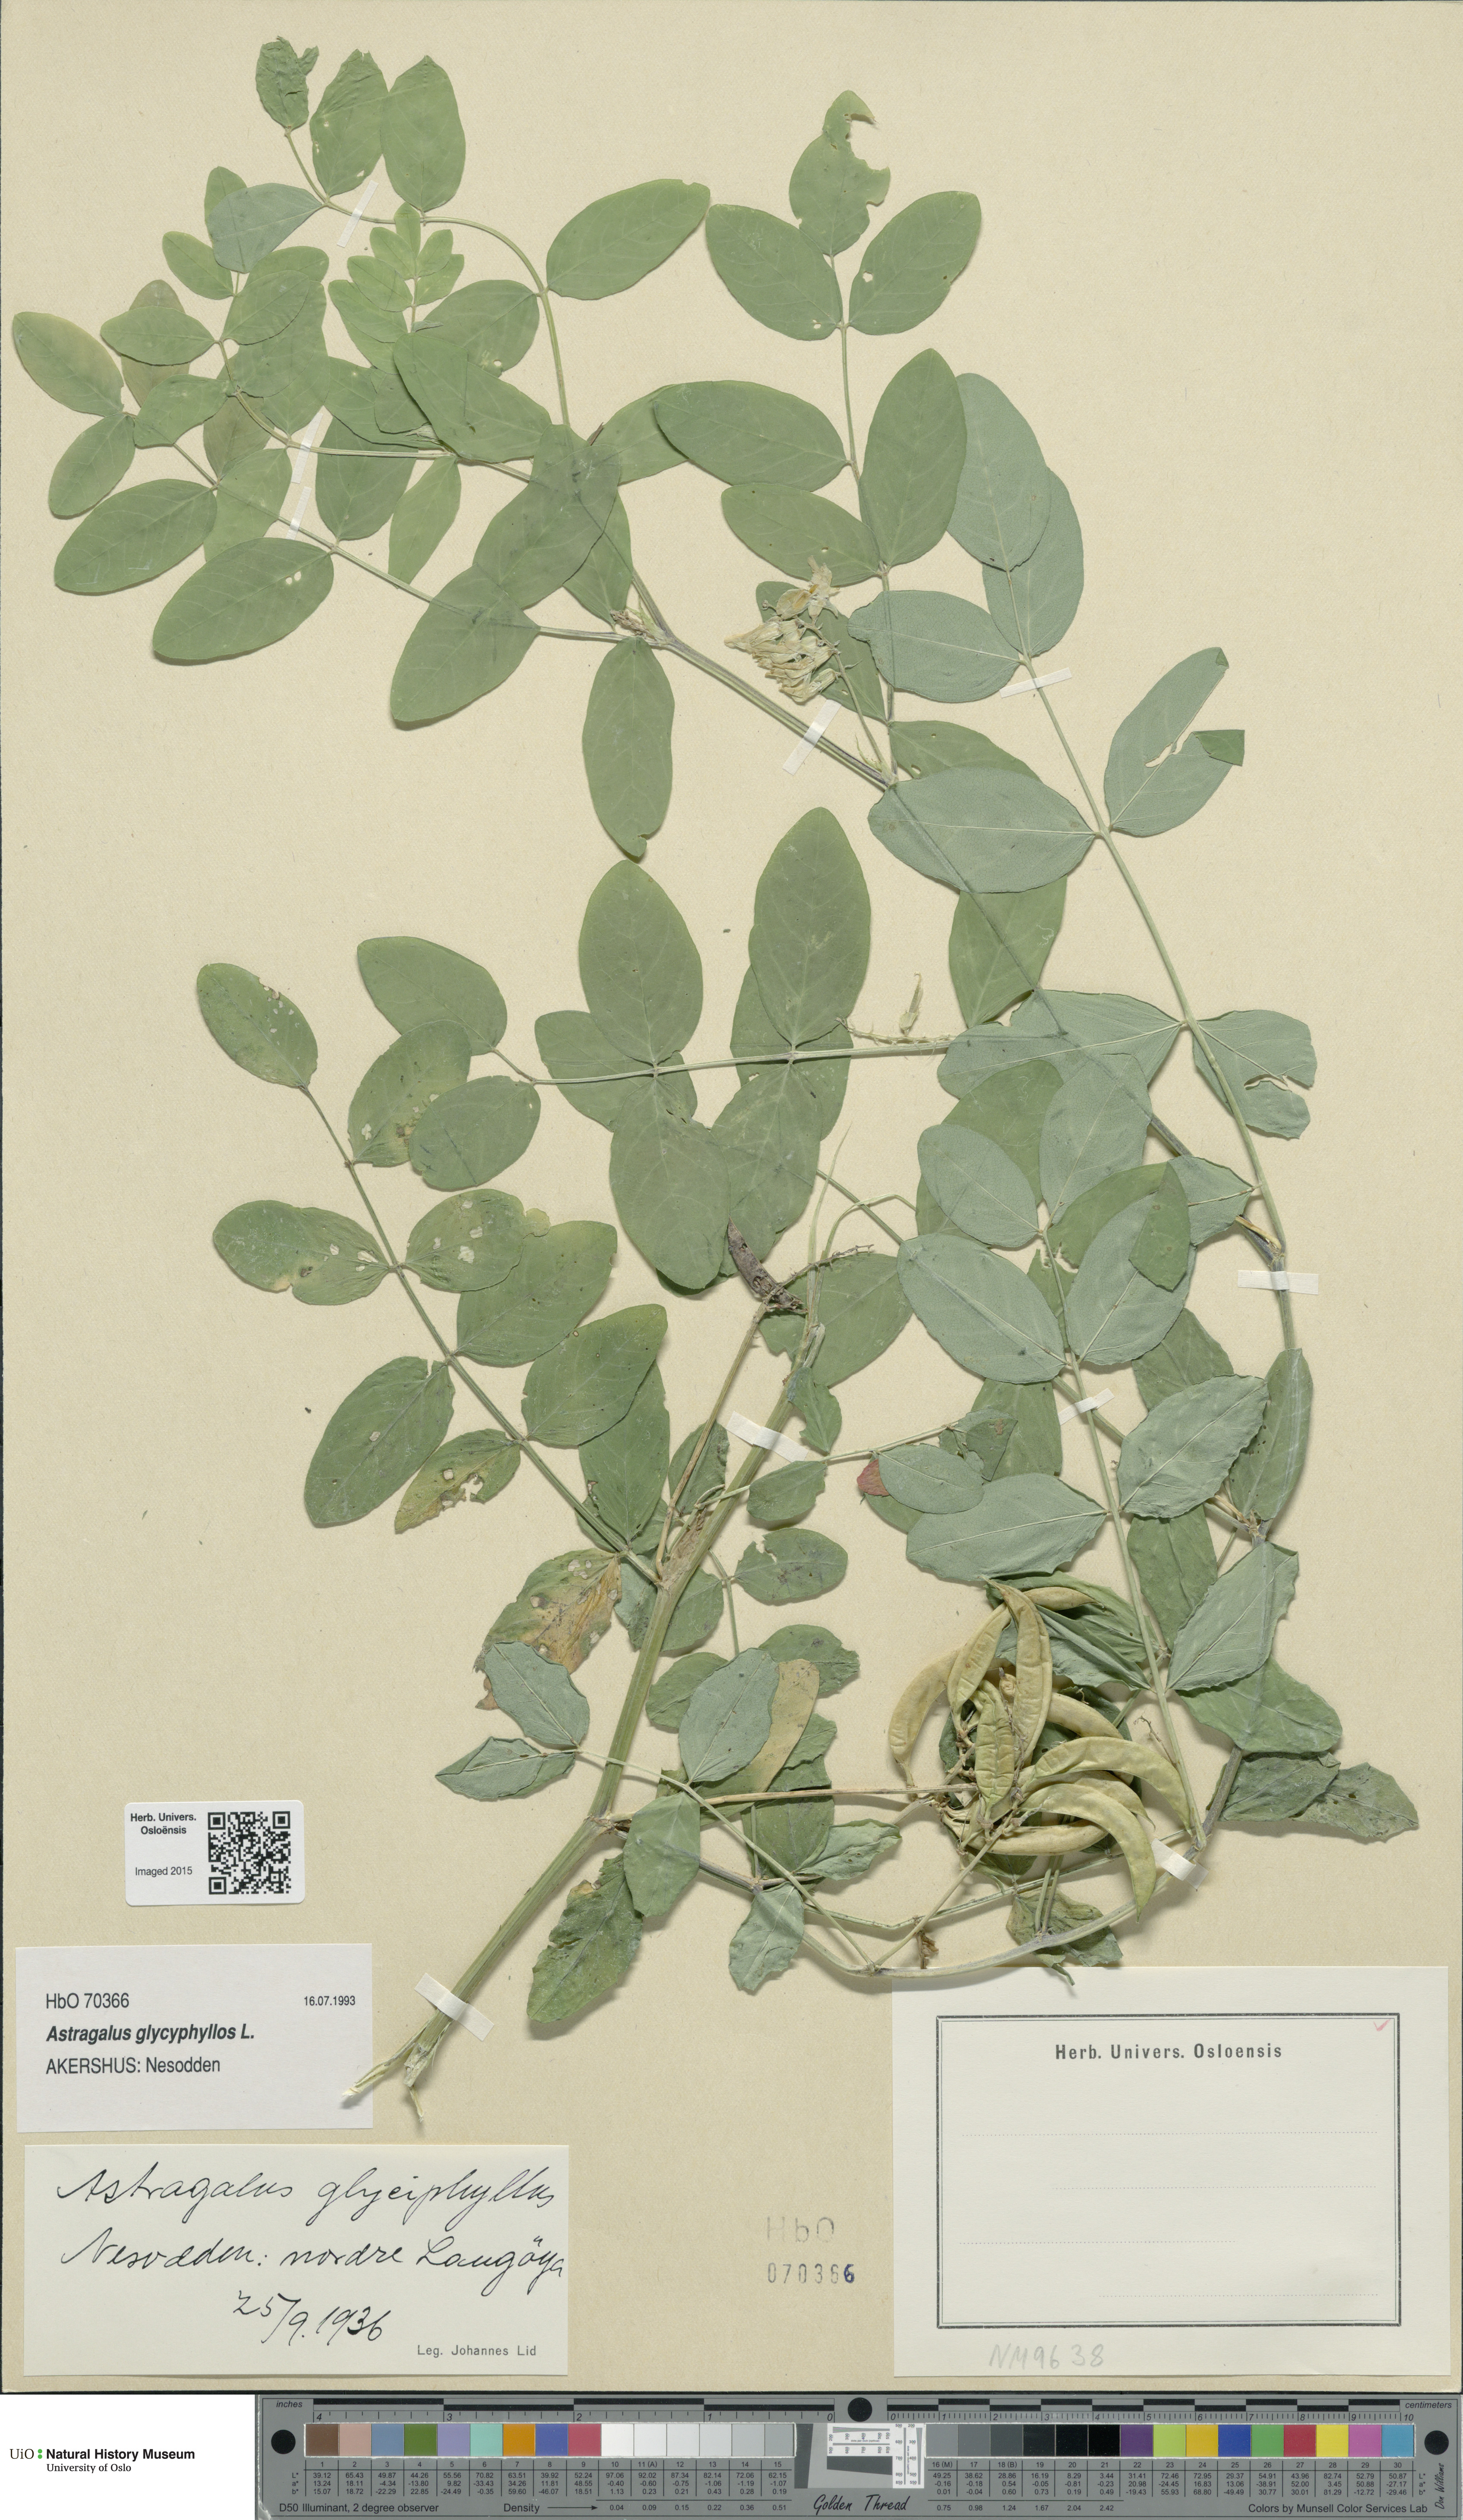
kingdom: Plantae
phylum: Tracheophyta
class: Magnoliopsida
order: Fabales
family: Fabaceae
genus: Astragalus
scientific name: Astragalus glycyphyllos
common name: Wild liquorice
